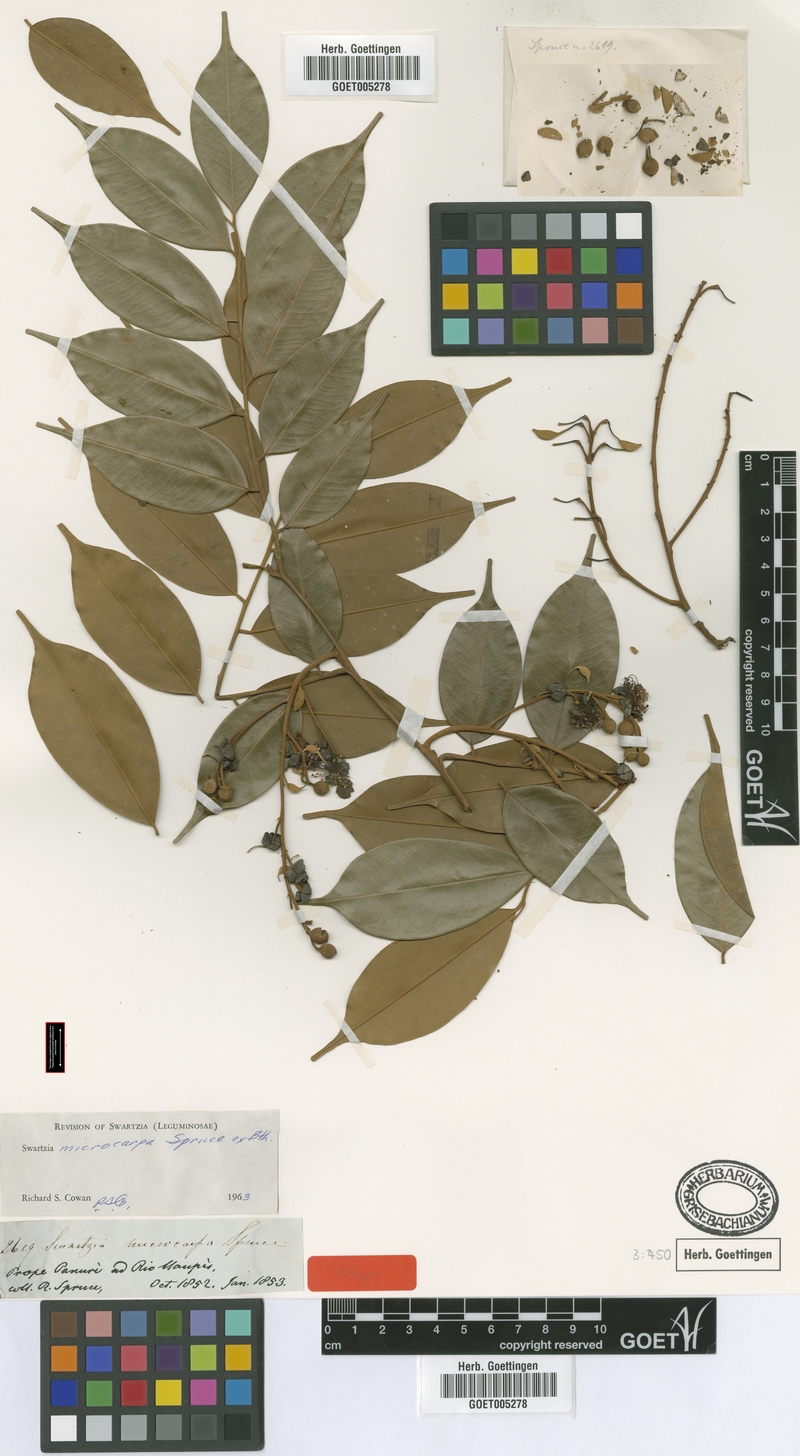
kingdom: Plantae
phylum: Tracheophyta
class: Magnoliopsida
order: Fabales
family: Fabaceae
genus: Swartzia
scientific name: Swartzia microcarpa
